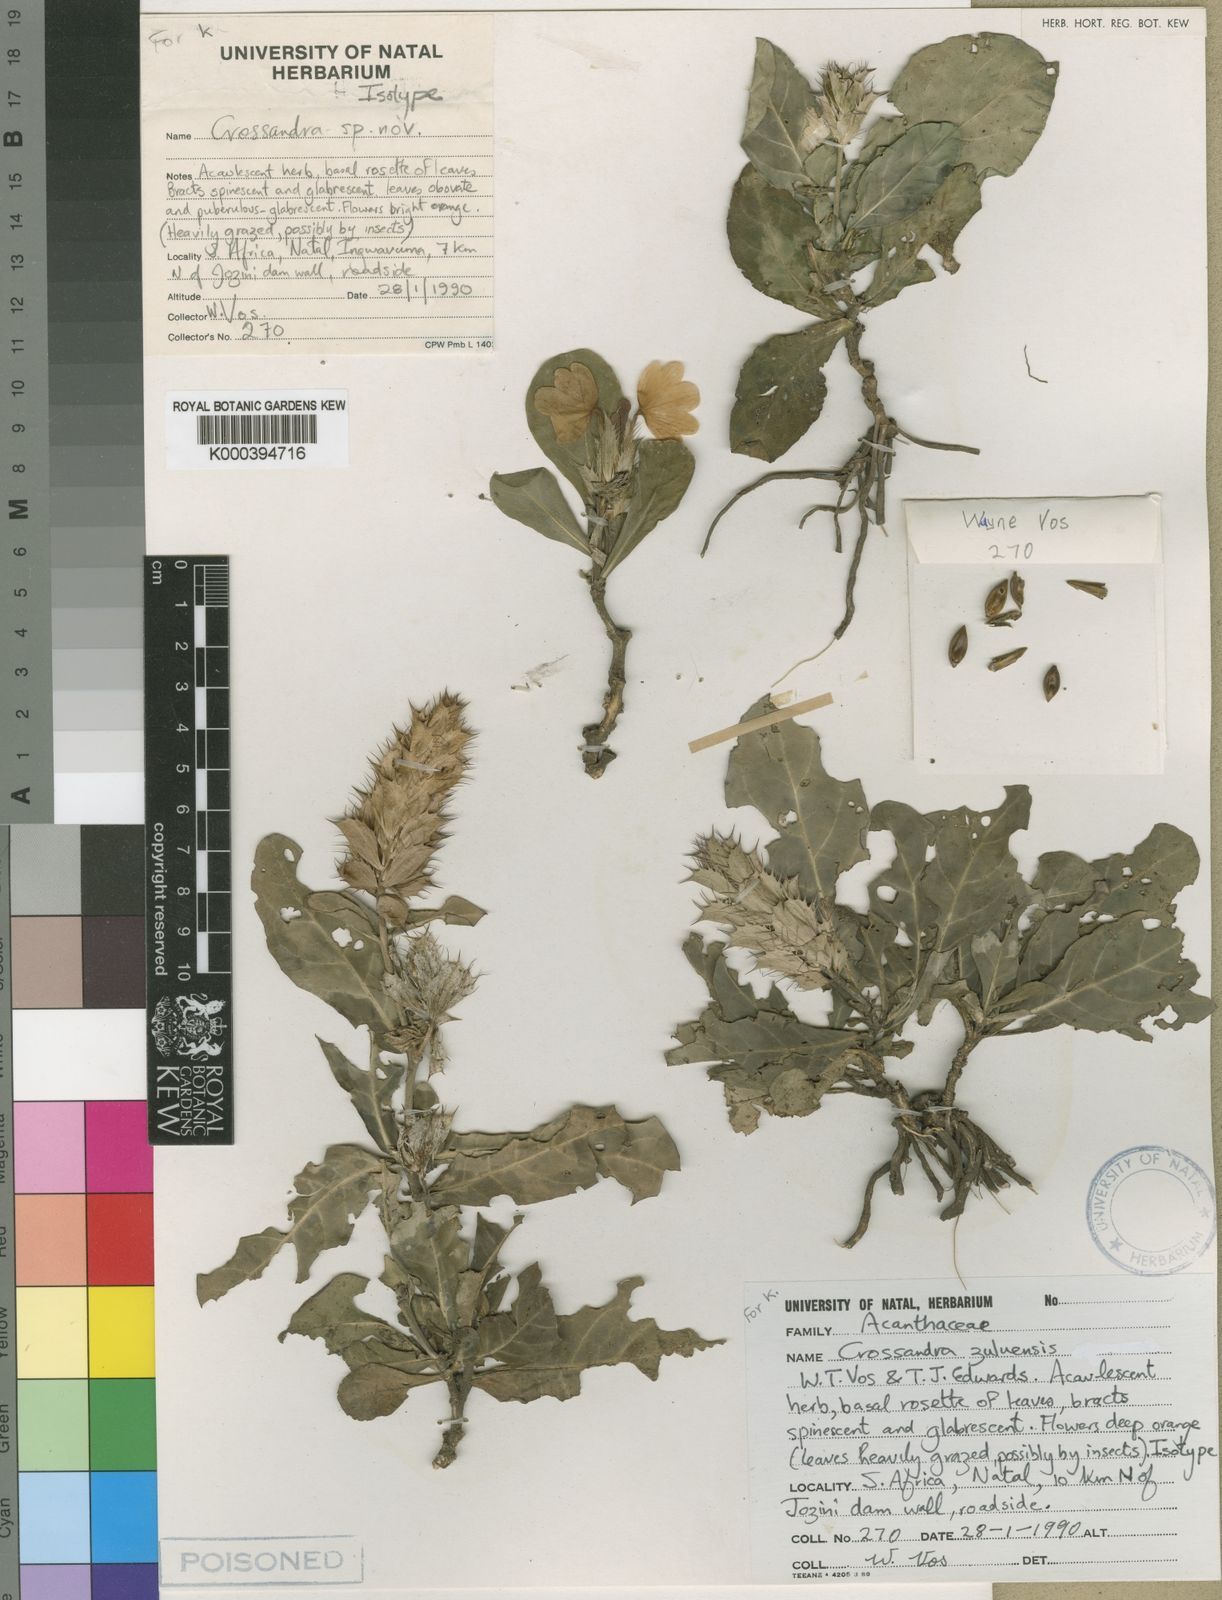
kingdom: Plantae
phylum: Tracheophyta
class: Magnoliopsida
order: Lamiales
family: Acanthaceae
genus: Crossandra
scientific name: Crossandra fruticulosa
